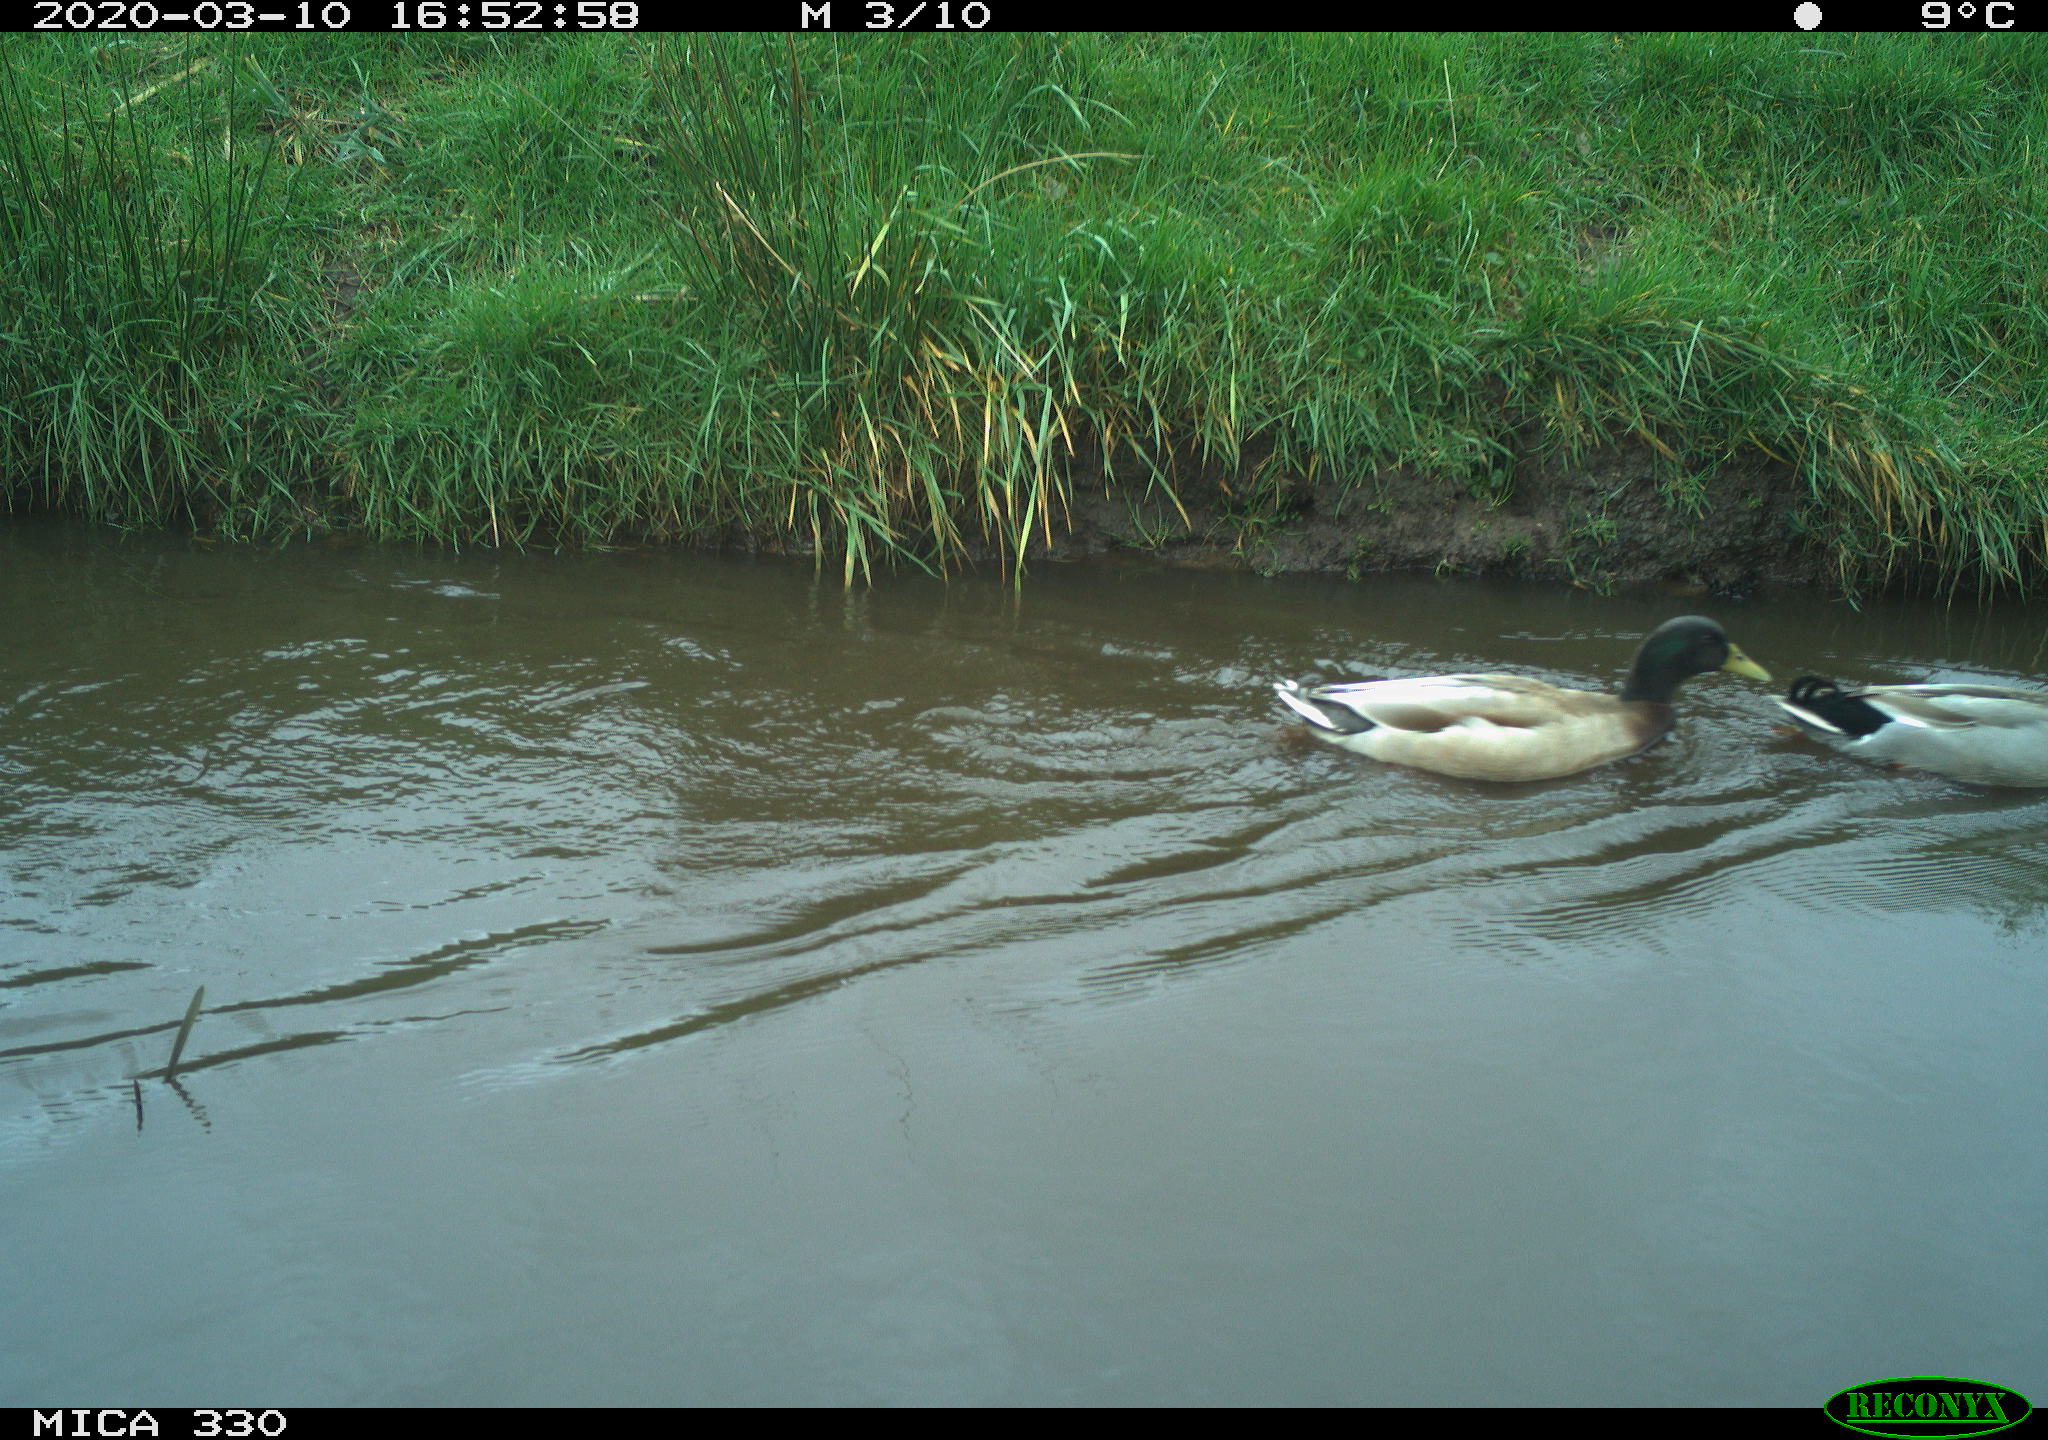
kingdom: Animalia
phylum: Chordata
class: Aves
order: Anseriformes
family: Anatidae
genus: Anas
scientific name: Anas platyrhynchos
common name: Mallard
